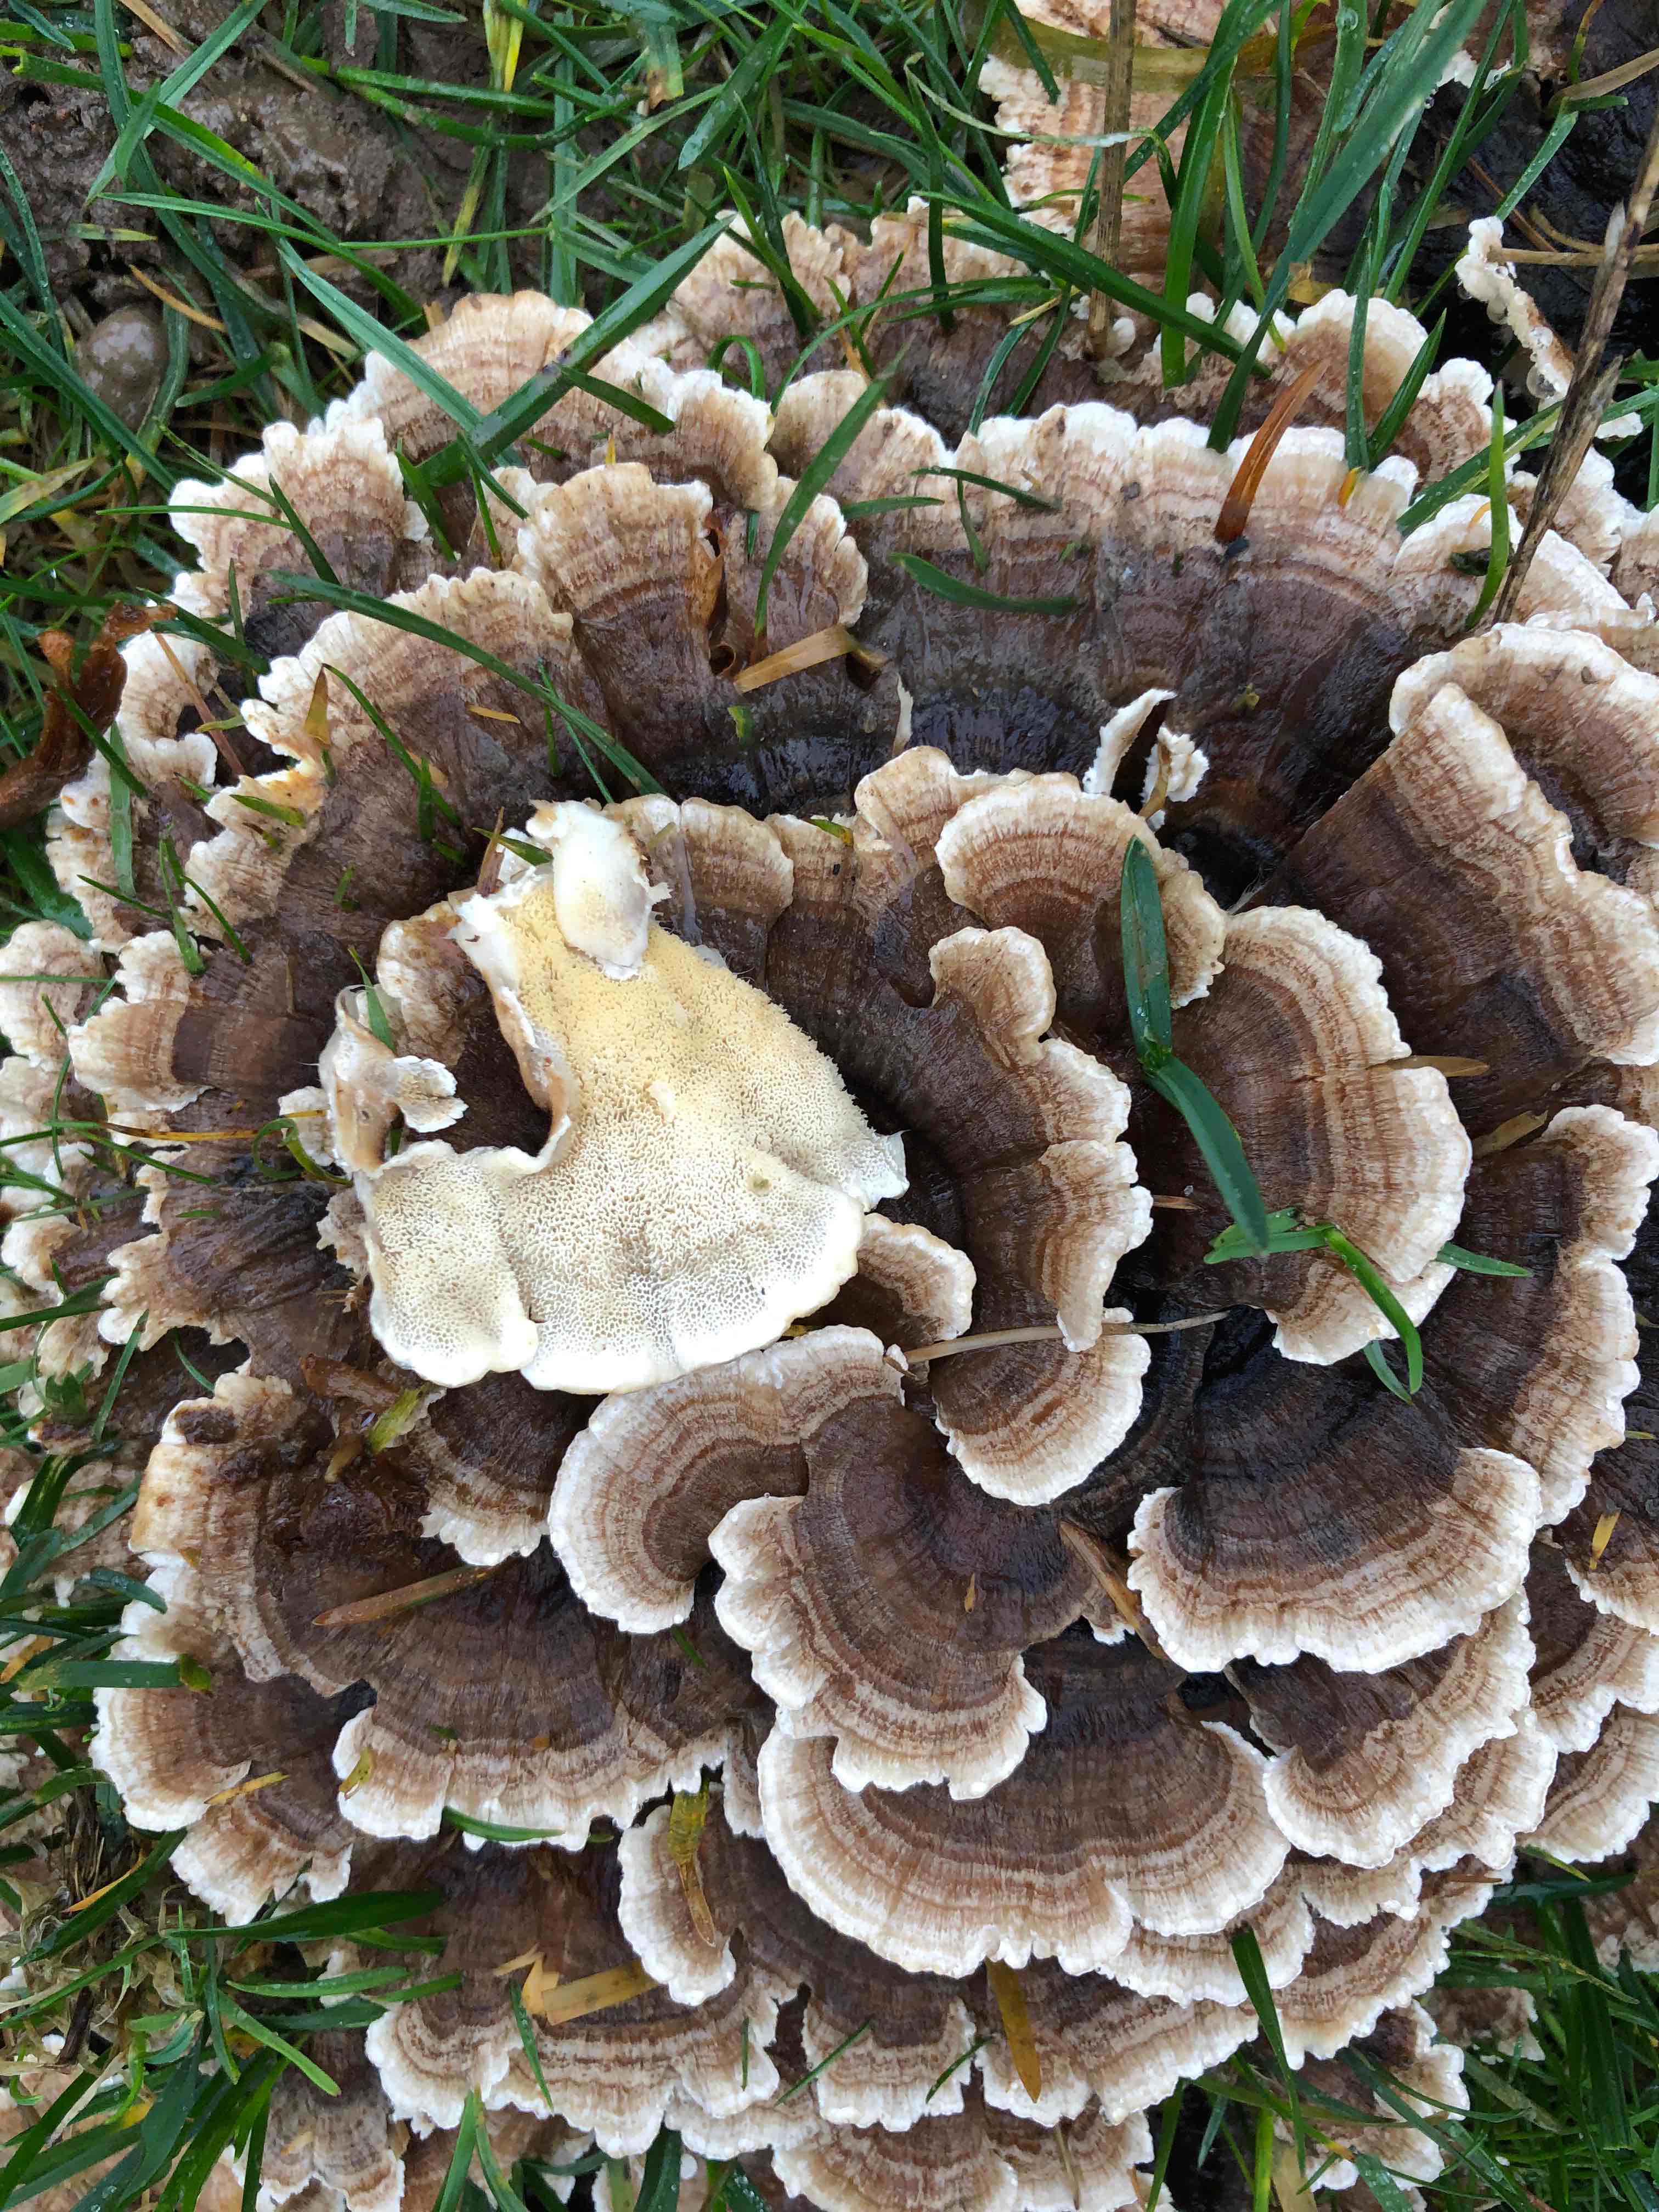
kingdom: Fungi
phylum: Basidiomycota
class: Agaricomycetes
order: Polyporales
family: Polyporaceae
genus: Trametes
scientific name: Trametes versicolor
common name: broget læderporesvamp
